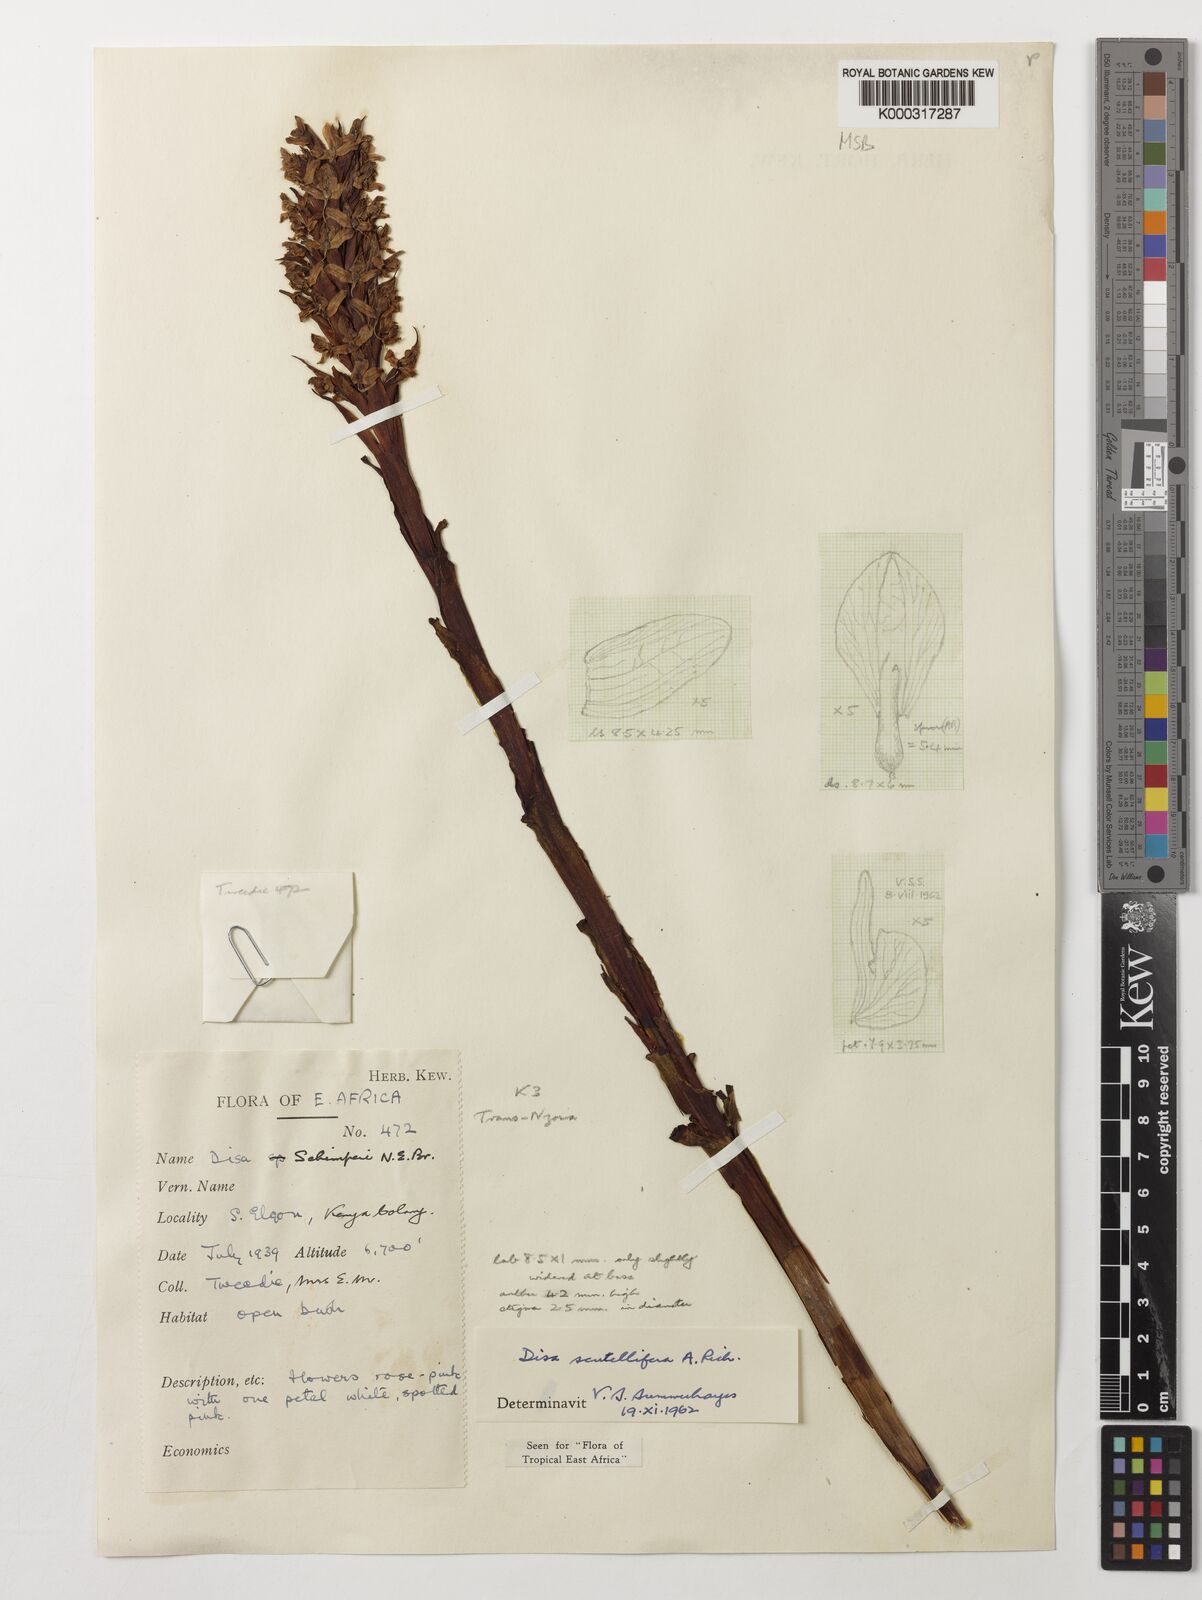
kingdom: Plantae
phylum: Tracheophyta
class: Liliopsida
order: Asparagales
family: Orchidaceae
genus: Disa
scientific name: Disa scutellifera
